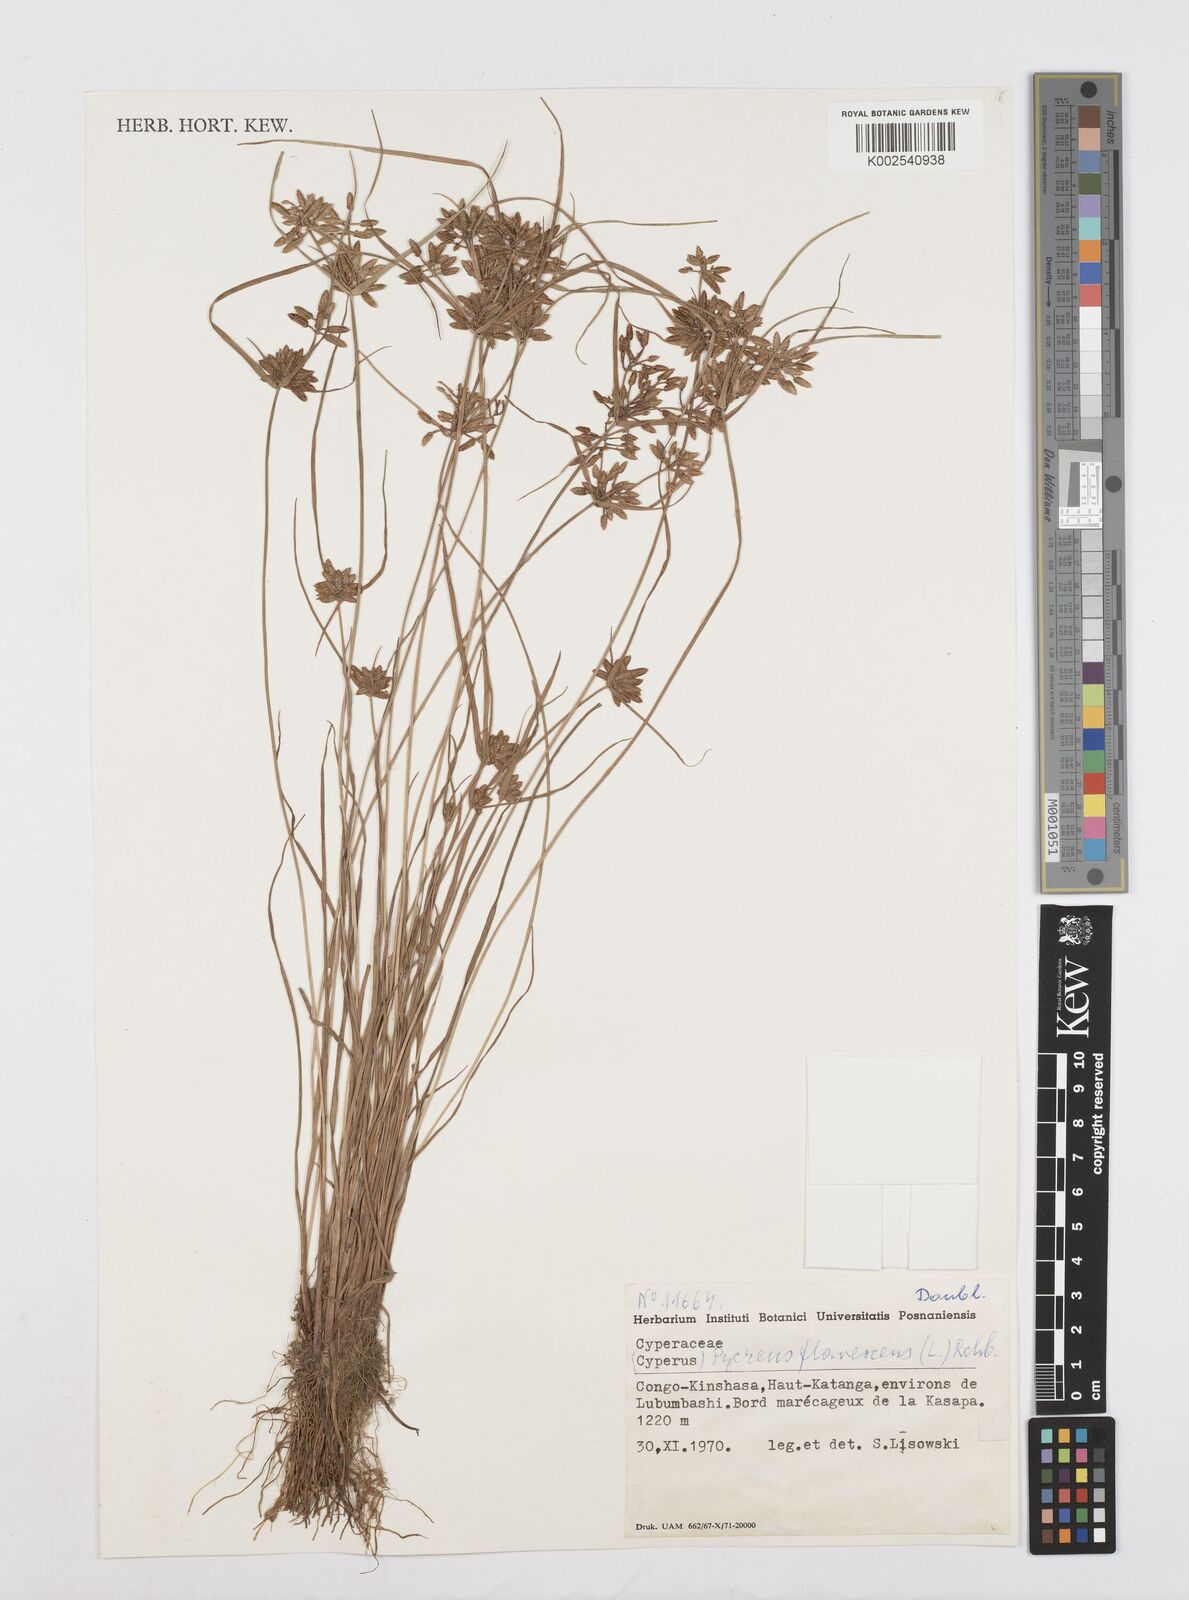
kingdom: Plantae
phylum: Tracheophyta
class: Liliopsida
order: Poales
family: Cyperaceae
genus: Cyperus
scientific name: Cyperus flavescens
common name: Yellow galingale
